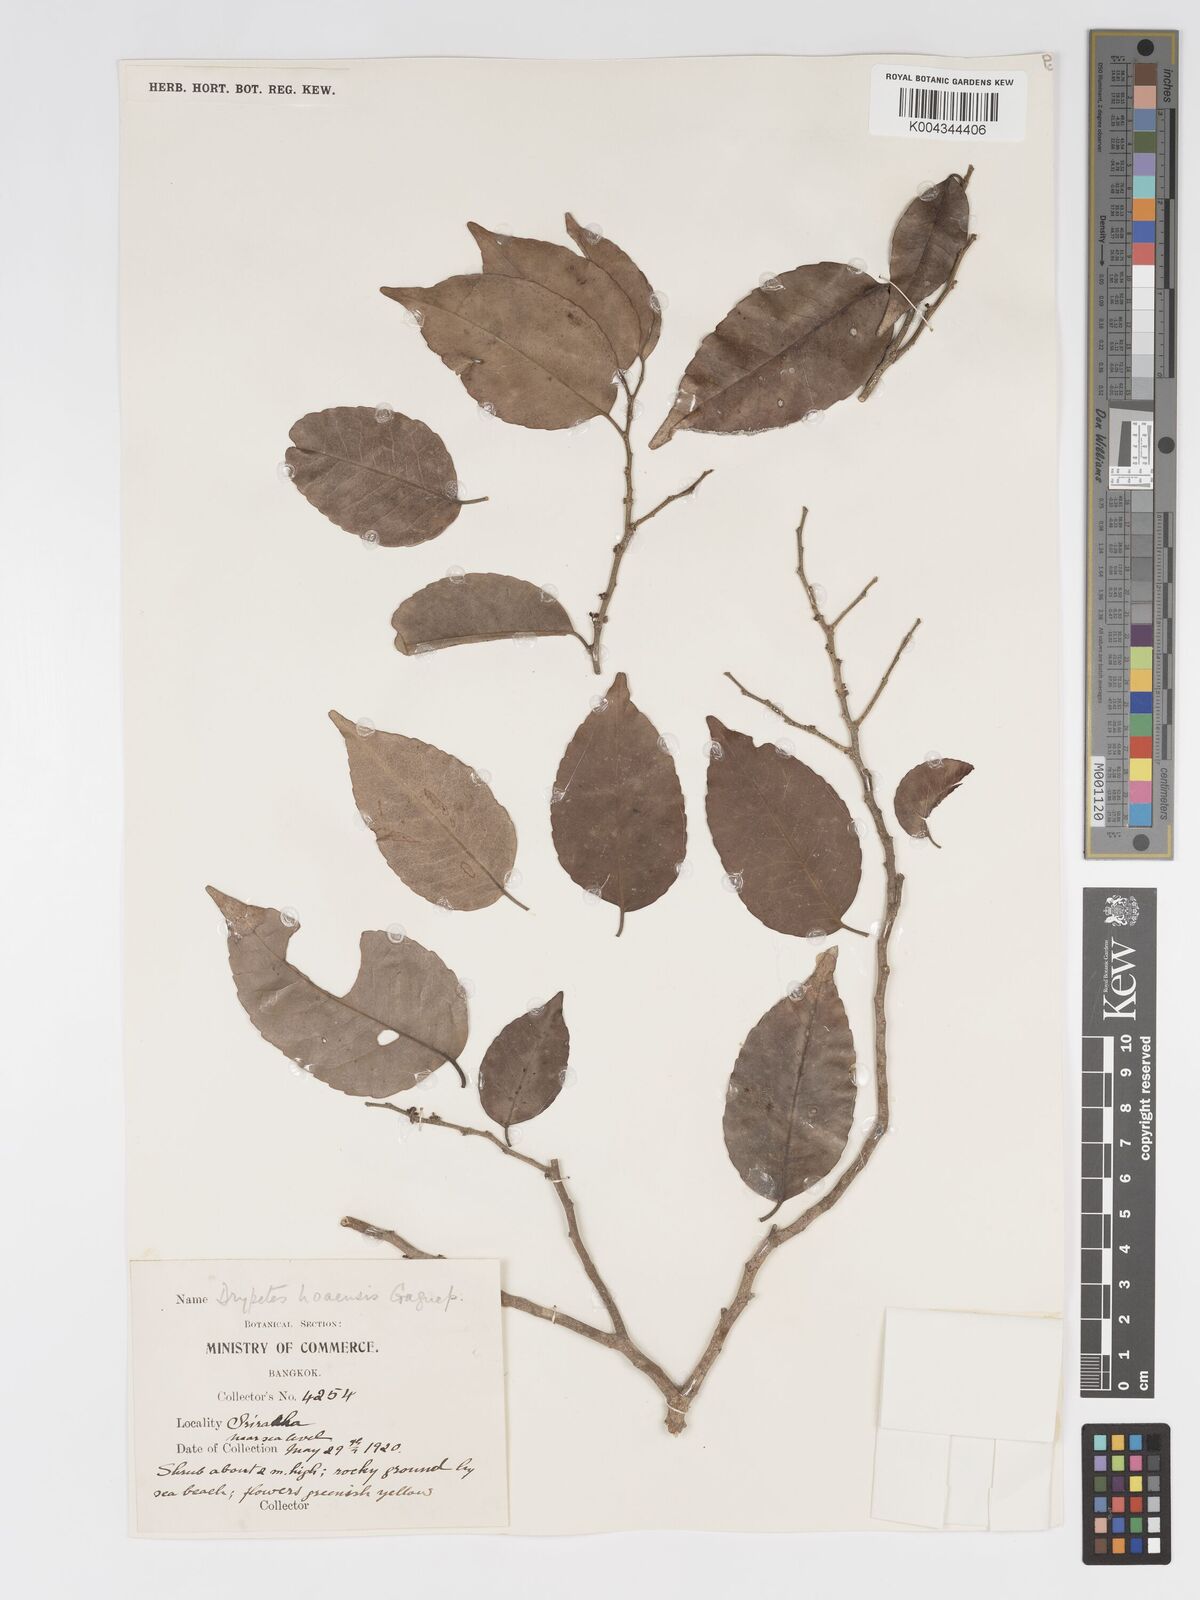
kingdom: Plantae
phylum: Tracheophyta
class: Magnoliopsida
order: Malpighiales
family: Putranjivaceae
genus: Drypetes
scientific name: Drypetes hoaensis
